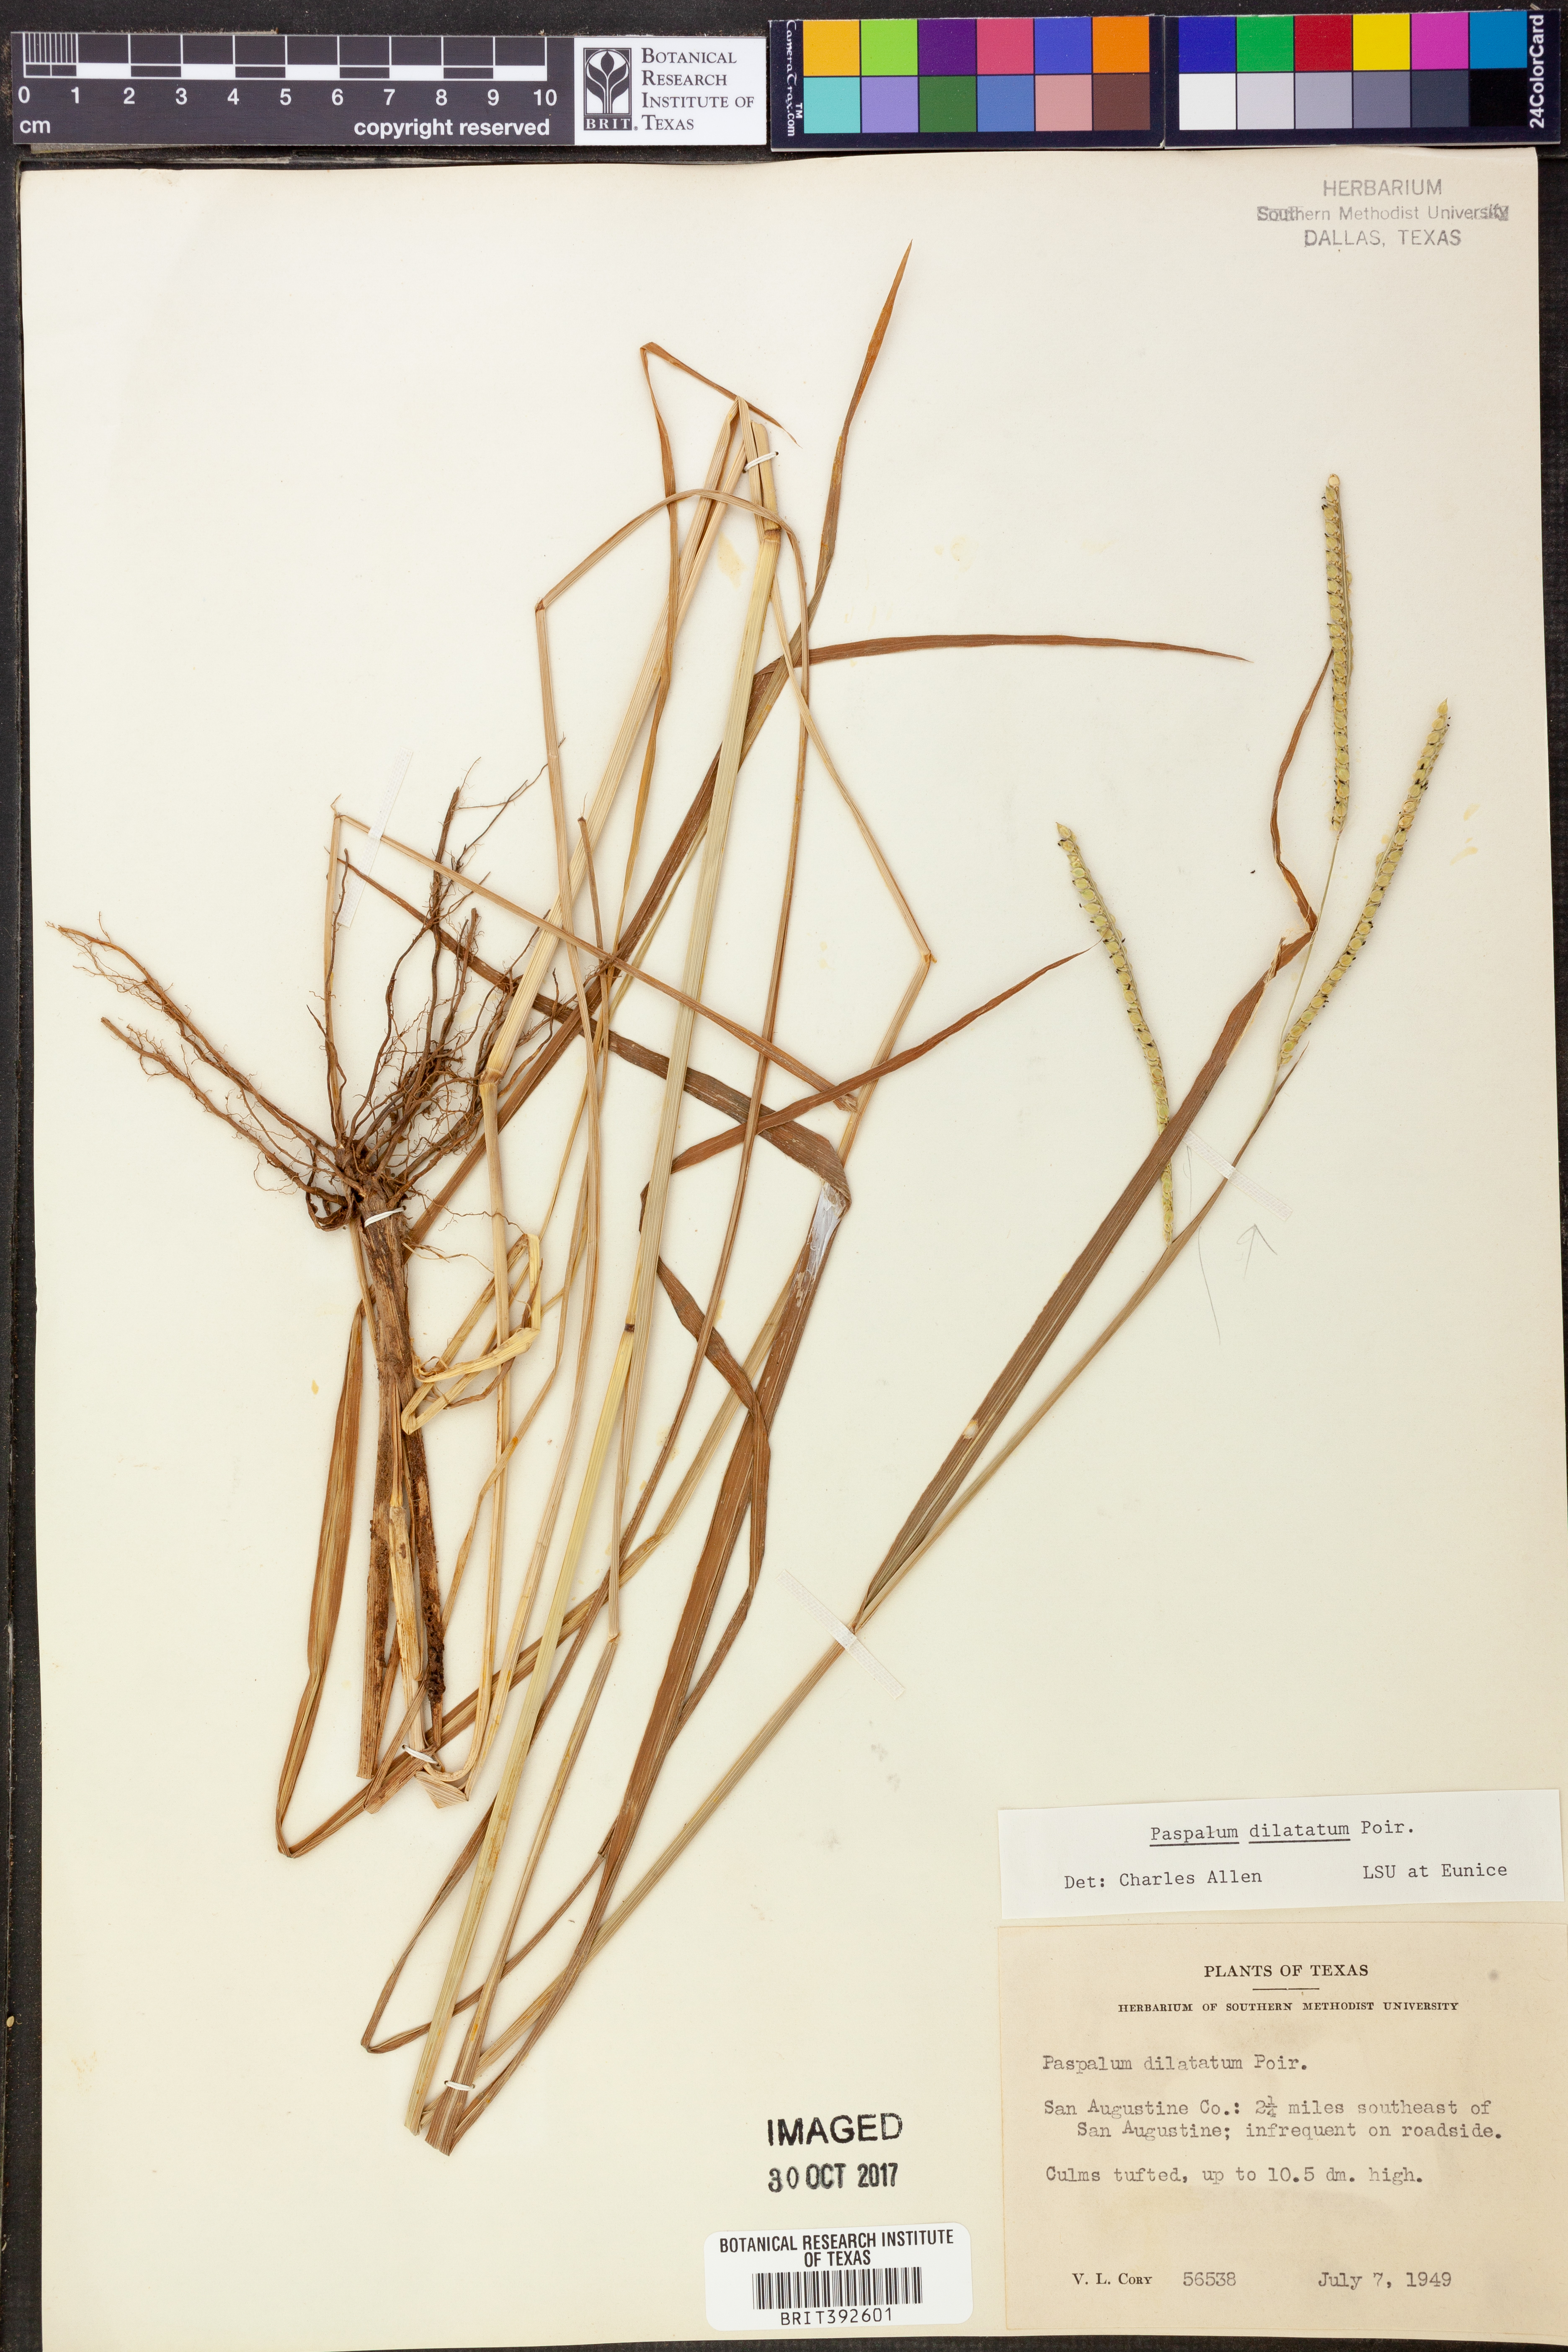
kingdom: Plantae
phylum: Tracheophyta
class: Liliopsida
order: Poales
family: Poaceae
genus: Paspalum
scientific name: Paspalum dilatatum
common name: Dallisgrass
